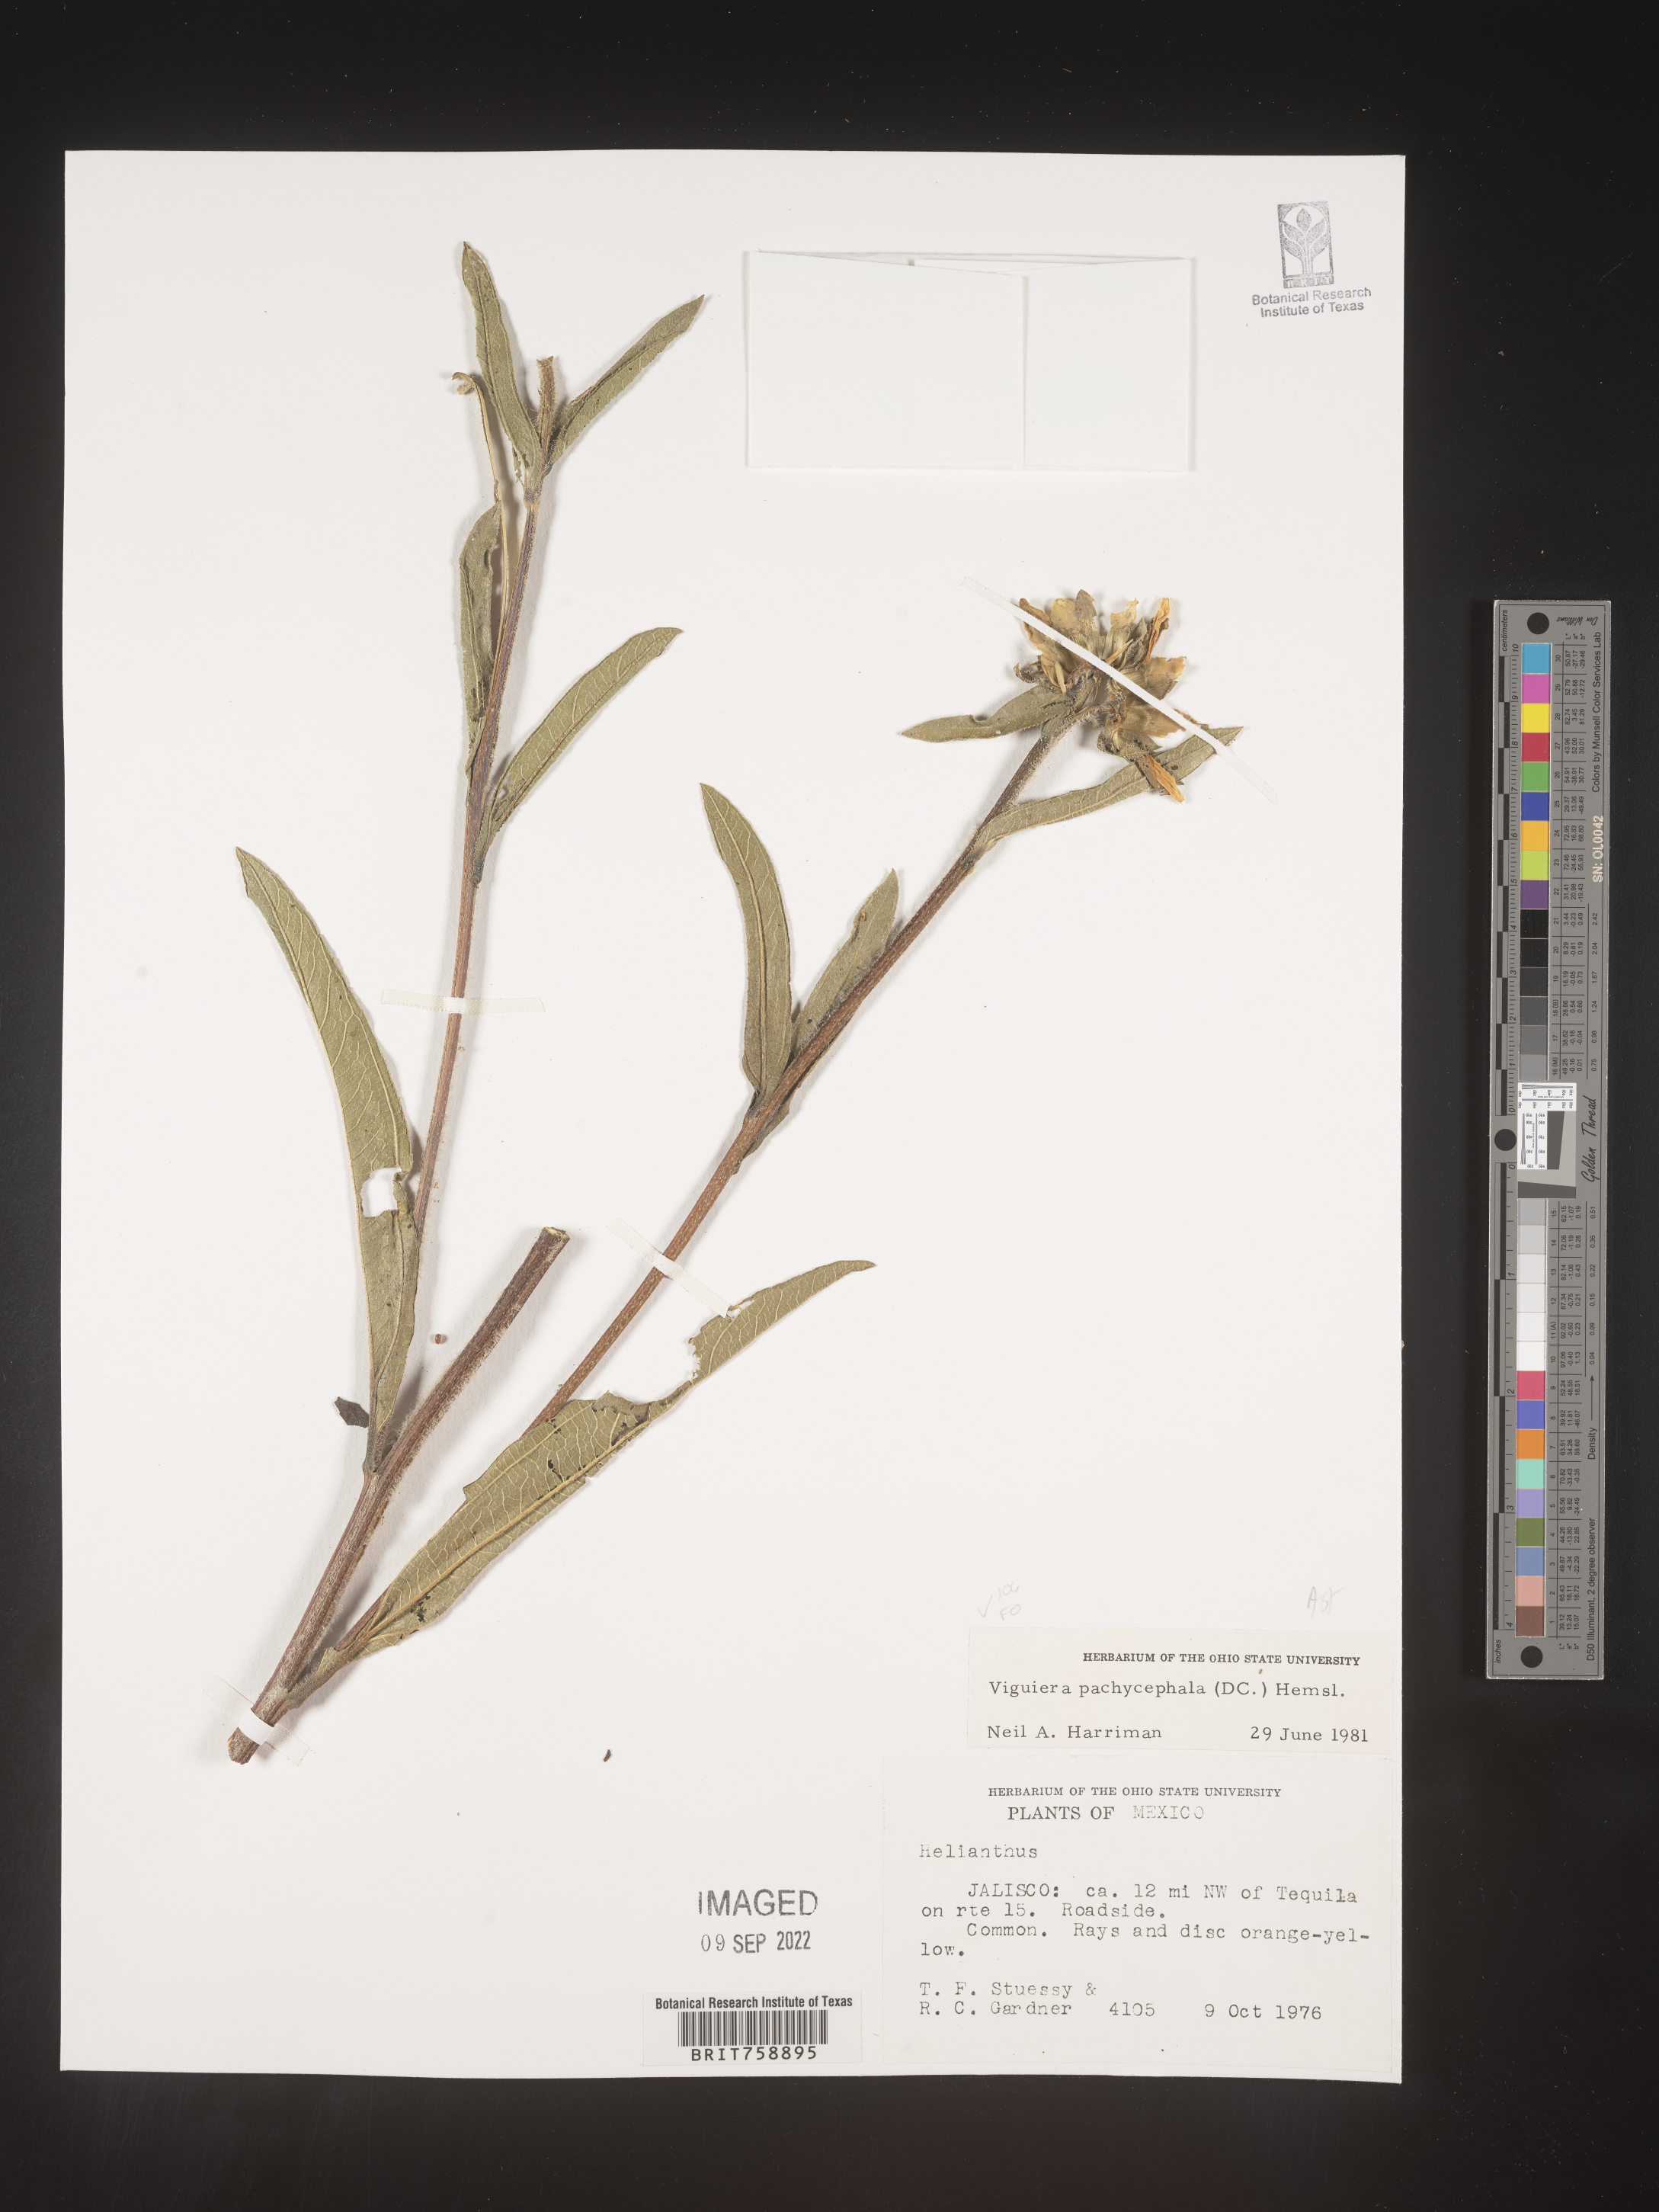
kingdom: Plantae
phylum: Tracheophyta
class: Magnoliopsida
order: Asterales
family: Asteraceae
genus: Viguiera
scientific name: Viguiera
